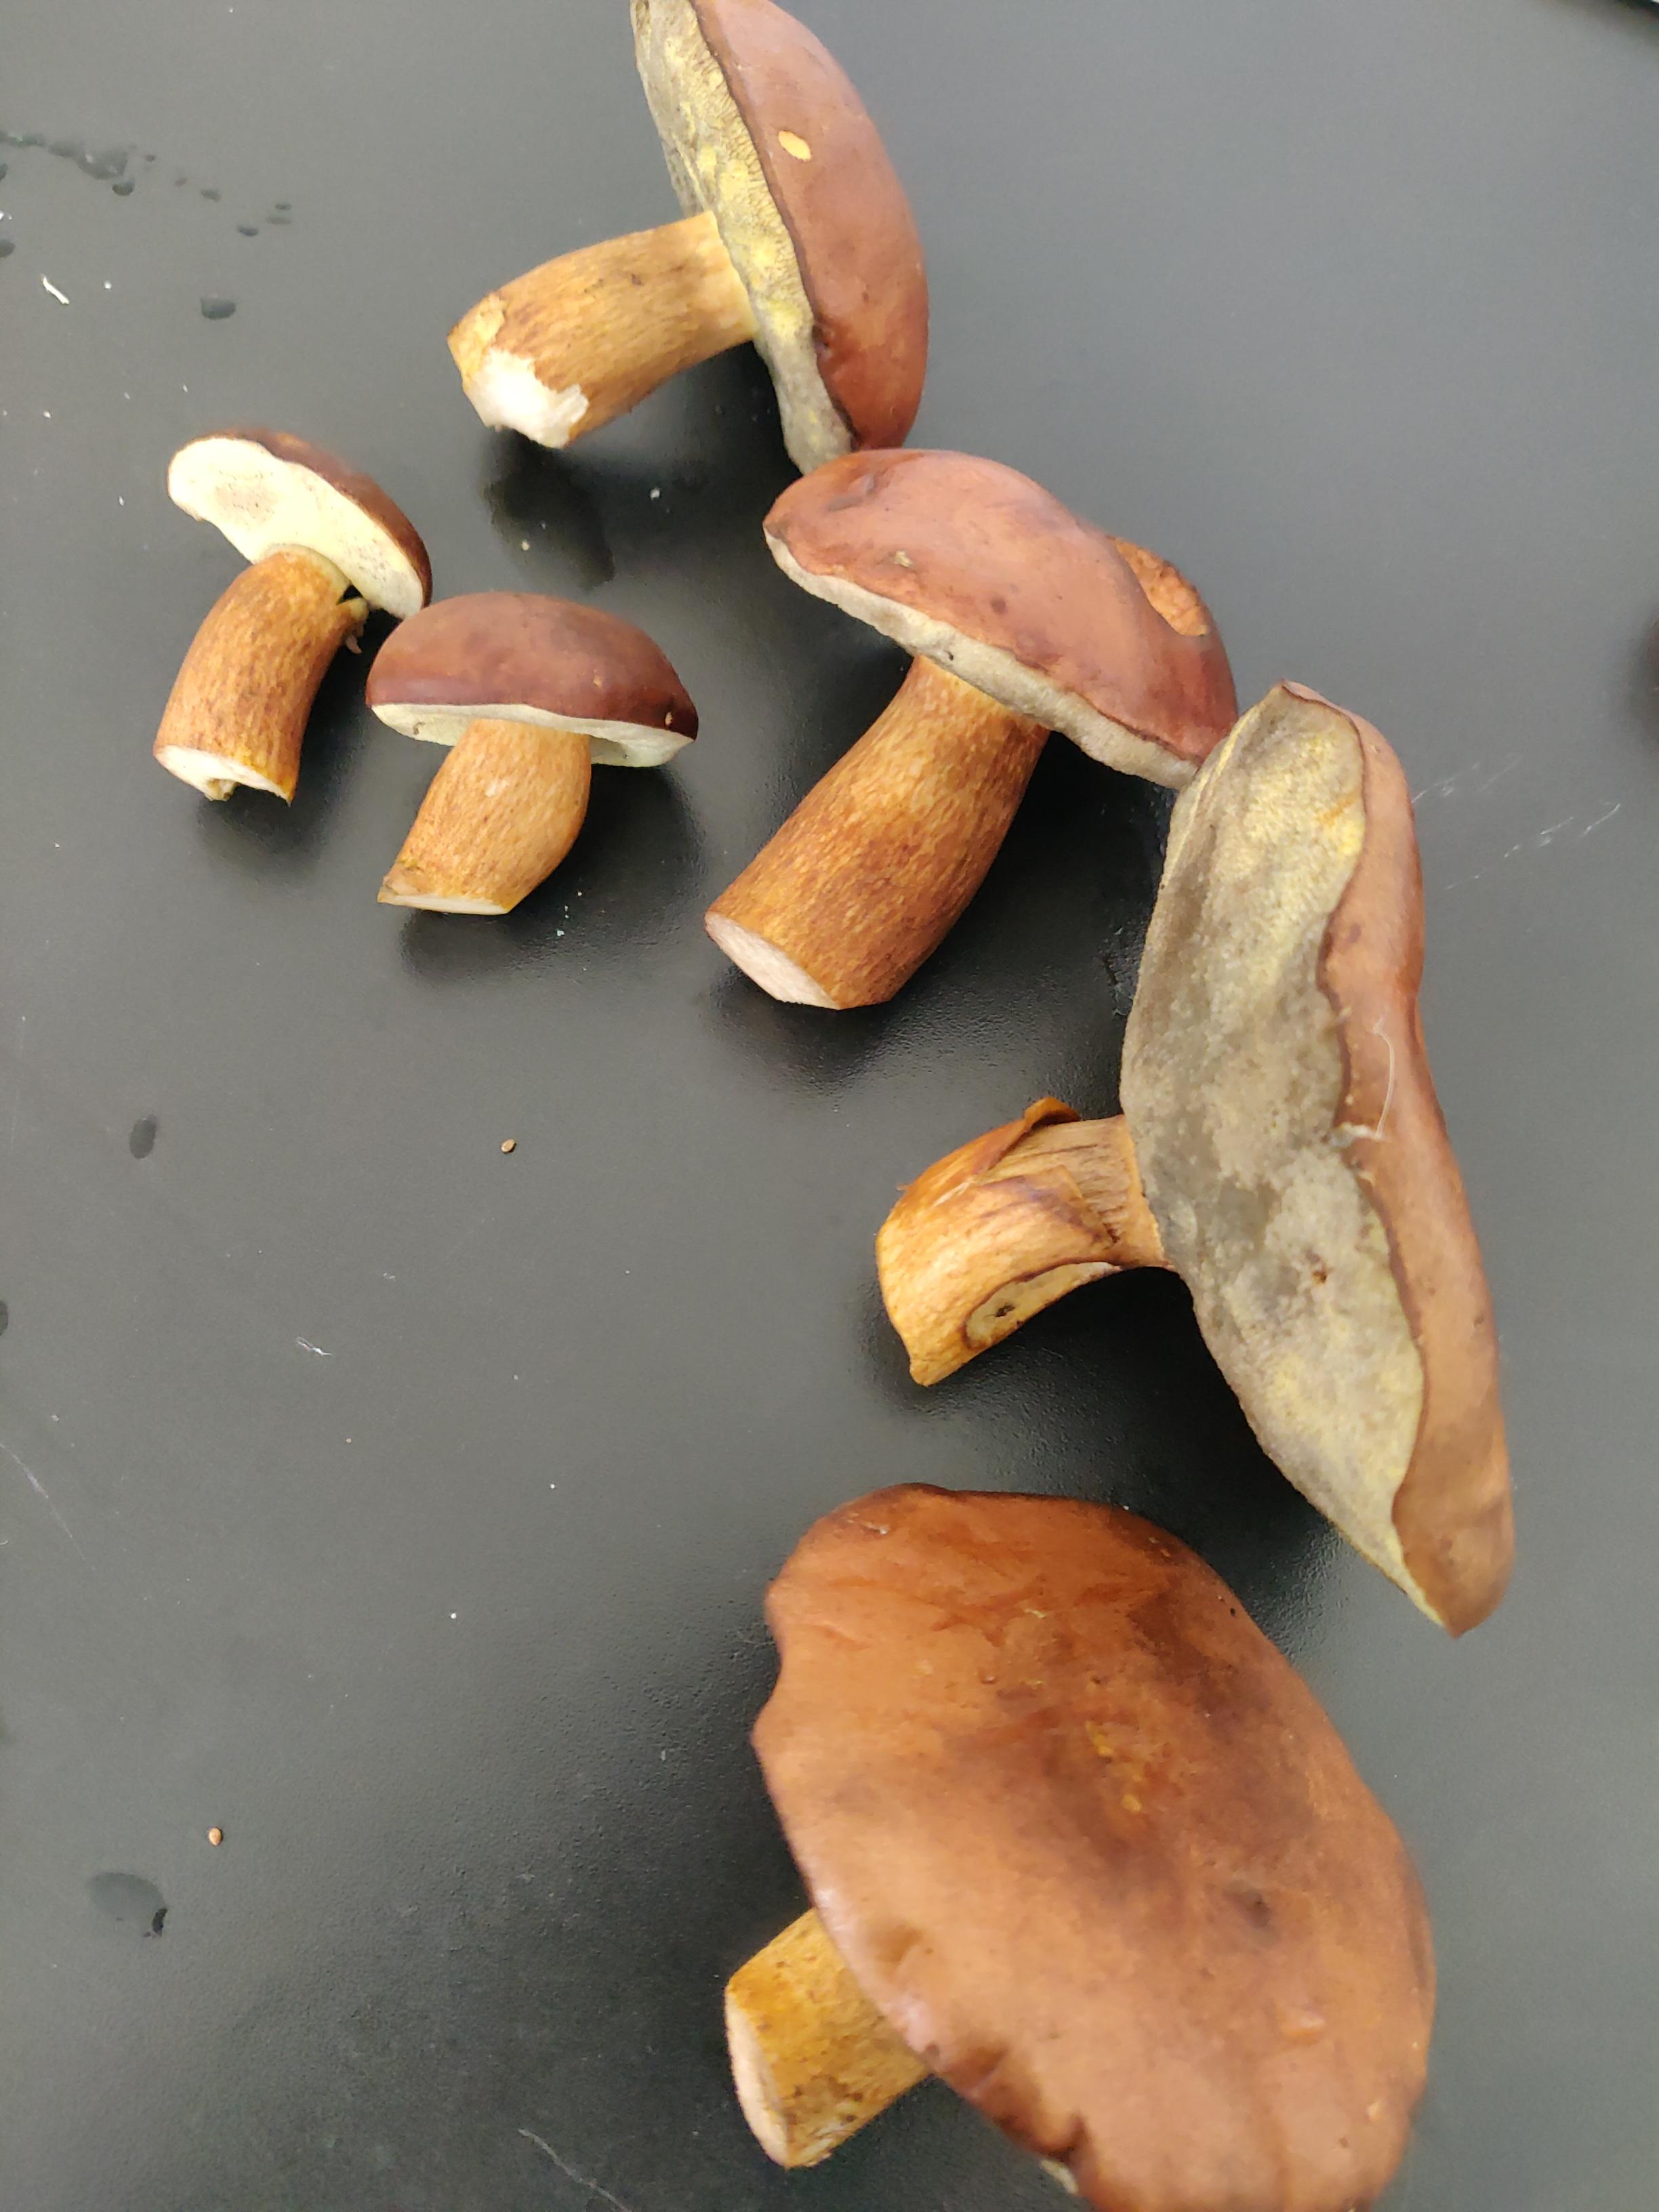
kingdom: Fungi
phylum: Basidiomycota
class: Agaricomycetes
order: Boletales
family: Boletaceae
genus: Imleria
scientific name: Imleria badia
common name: brunstokket rørhat
